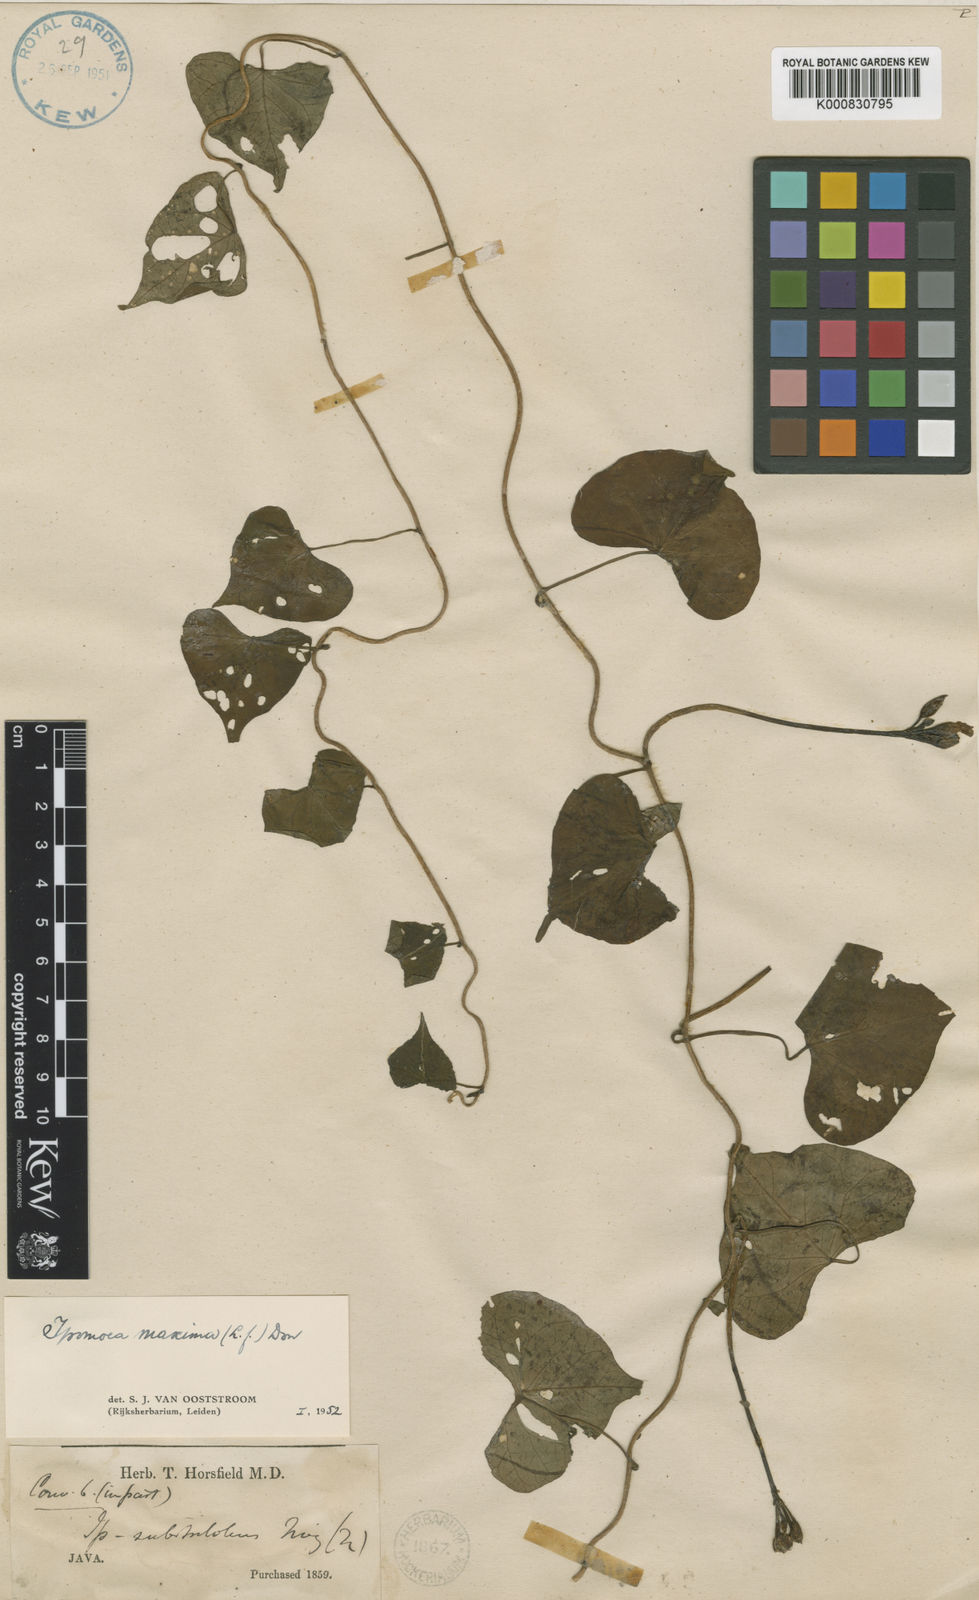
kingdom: Plantae
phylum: Tracheophyta
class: Magnoliopsida
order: Solanales
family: Convolvulaceae
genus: Ipomoea
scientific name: Ipomoea obscura
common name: Obscure morning-glory
